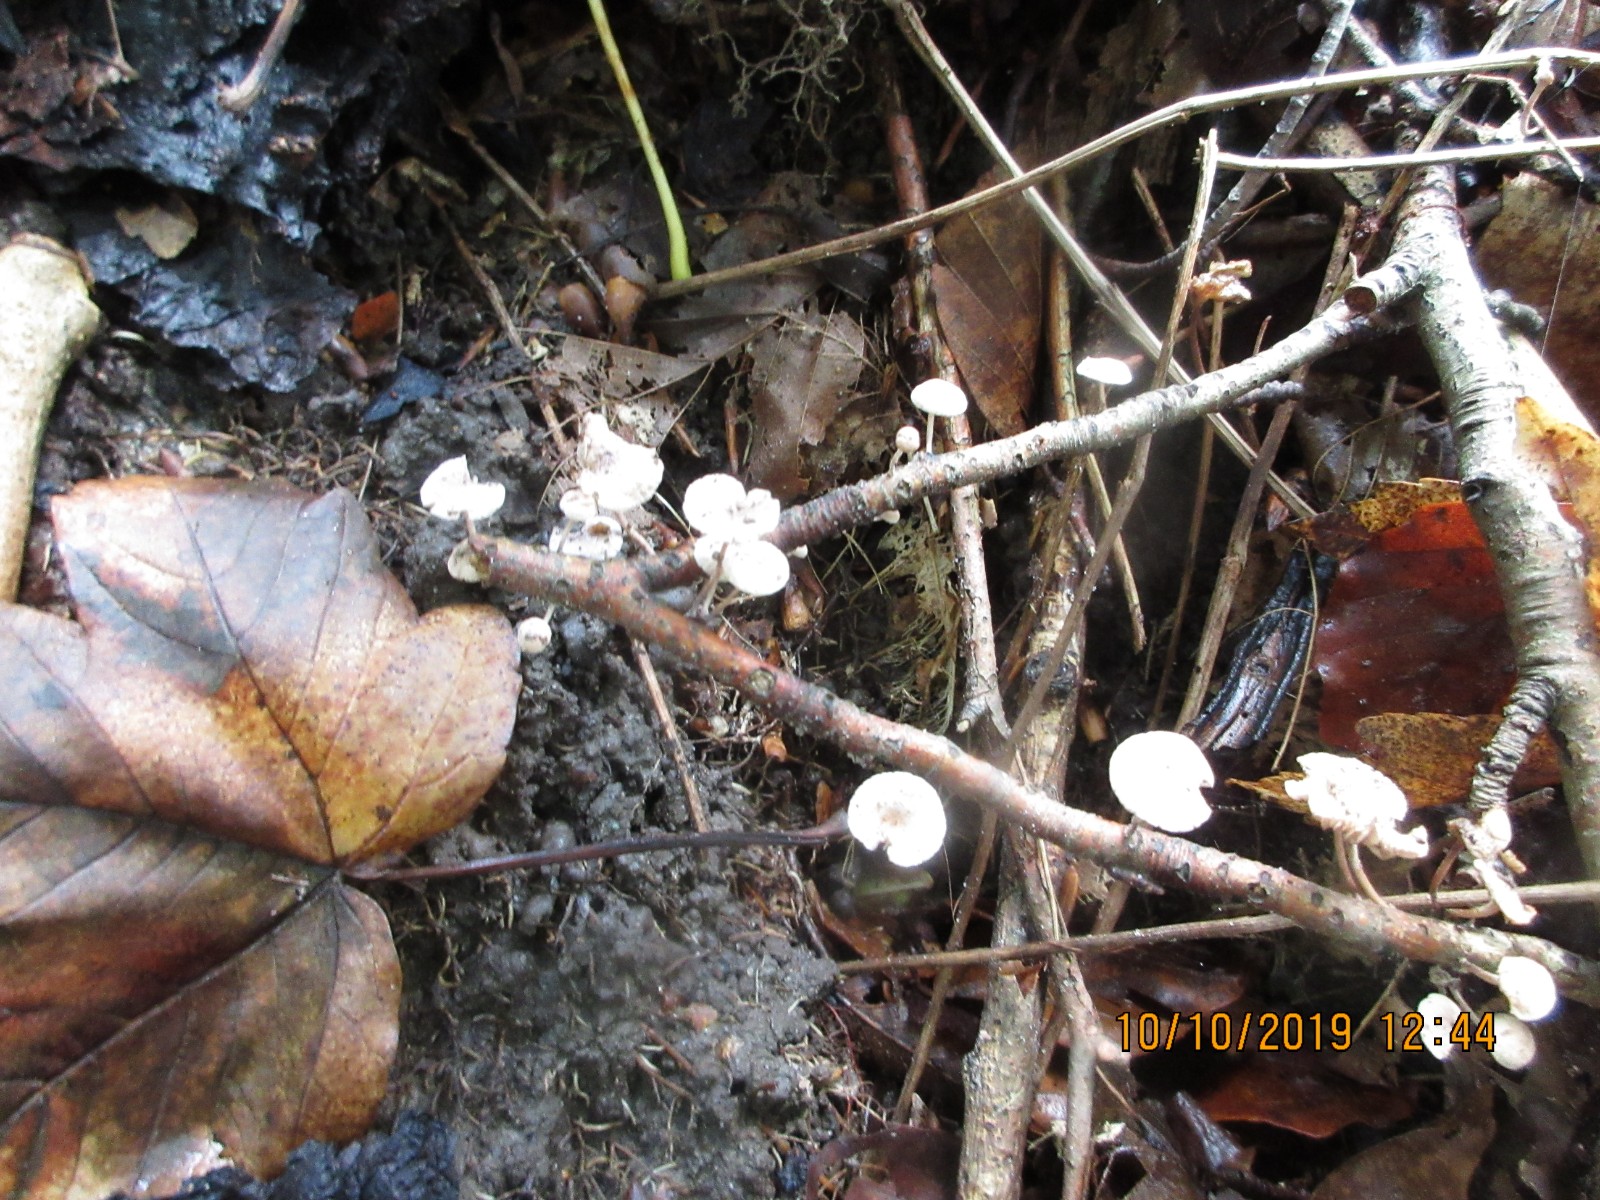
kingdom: Fungi
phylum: Basidiomycota
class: Agaricomycetes
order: Agaricales
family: Omphalotaceae
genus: Collybiopsis
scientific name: Collybiopsis ramealis
